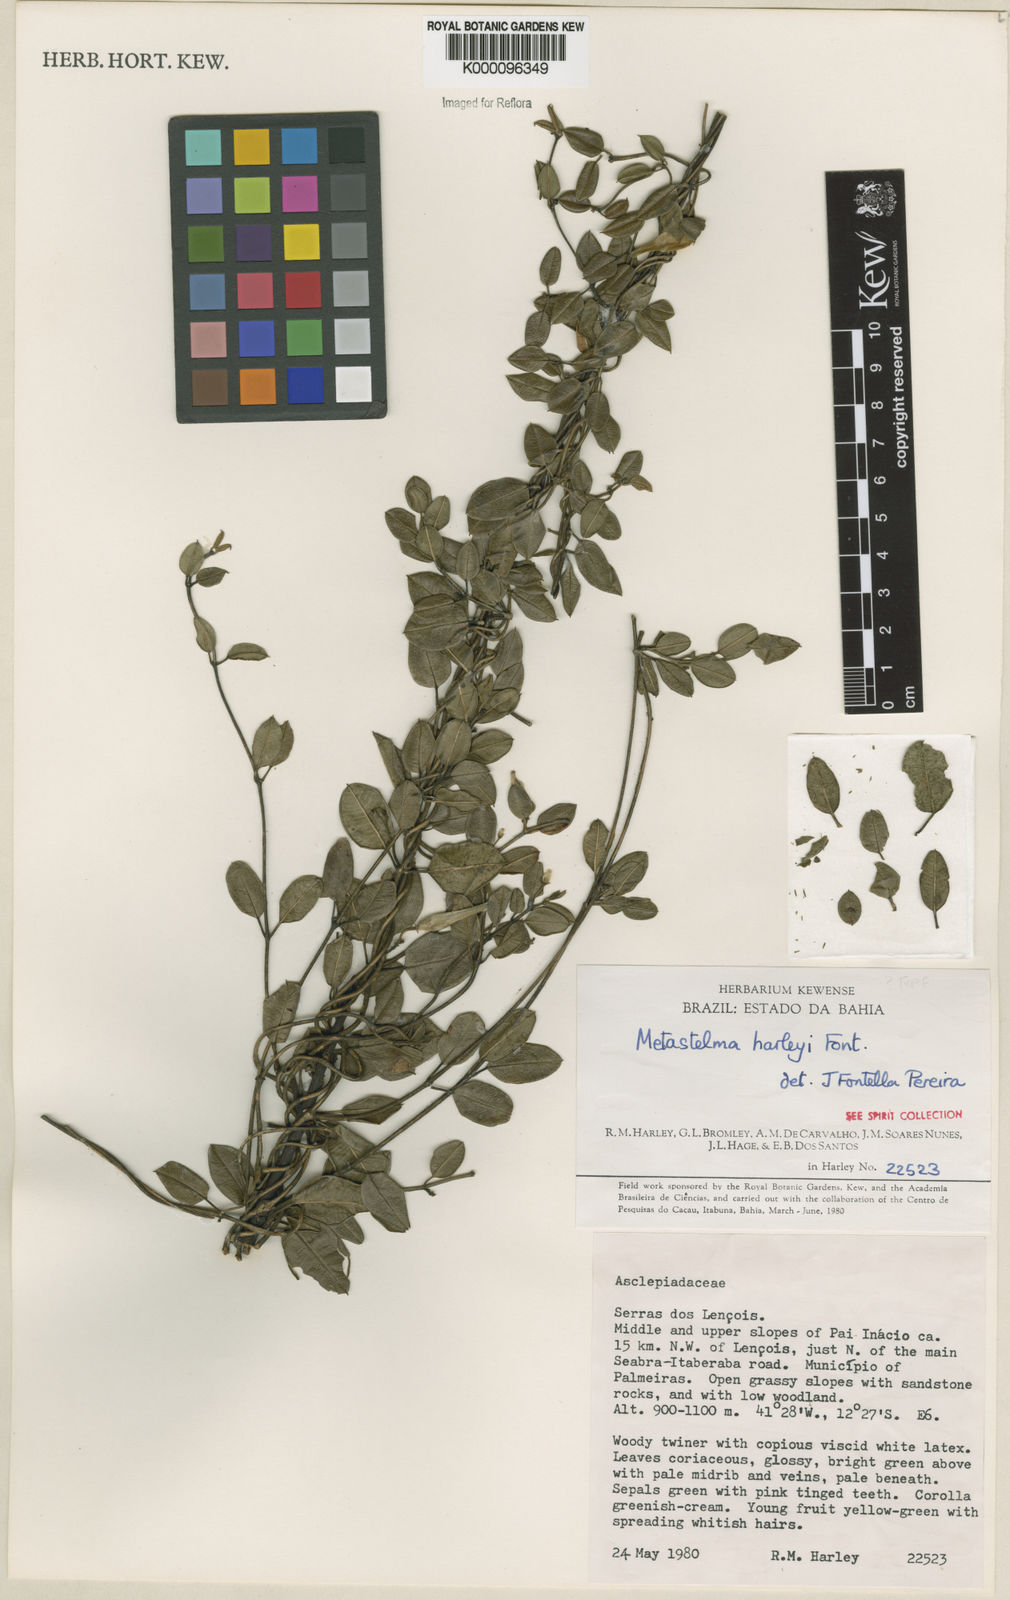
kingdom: Plantae
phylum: Tracheophyta
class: Magnoliopsida
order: Gentianales
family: Apocynaceae
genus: Metastelma
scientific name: Metastelma harleyi
